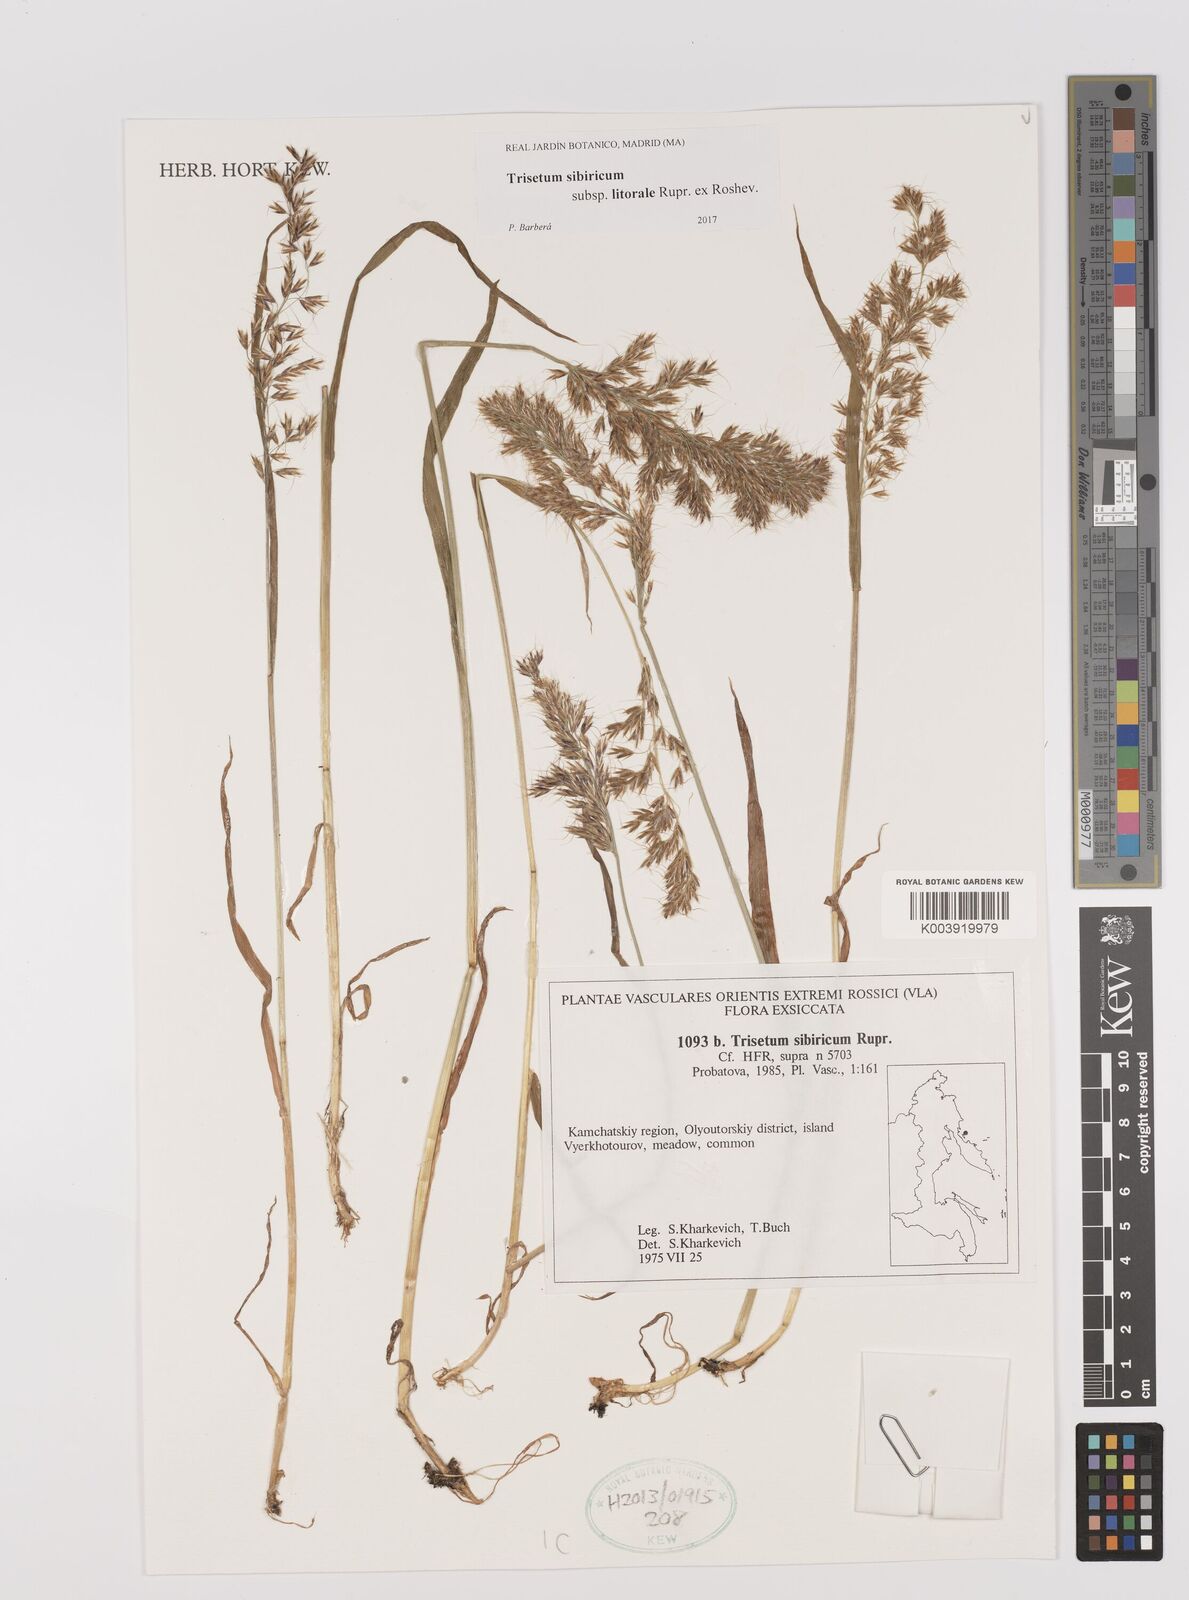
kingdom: Plantae
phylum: Tracheophyta
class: Liliopsida
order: Poales
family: Poaceae
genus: Sibirotrisetum
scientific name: Sibirotrisetum sibiricum
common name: Siberian false oat
